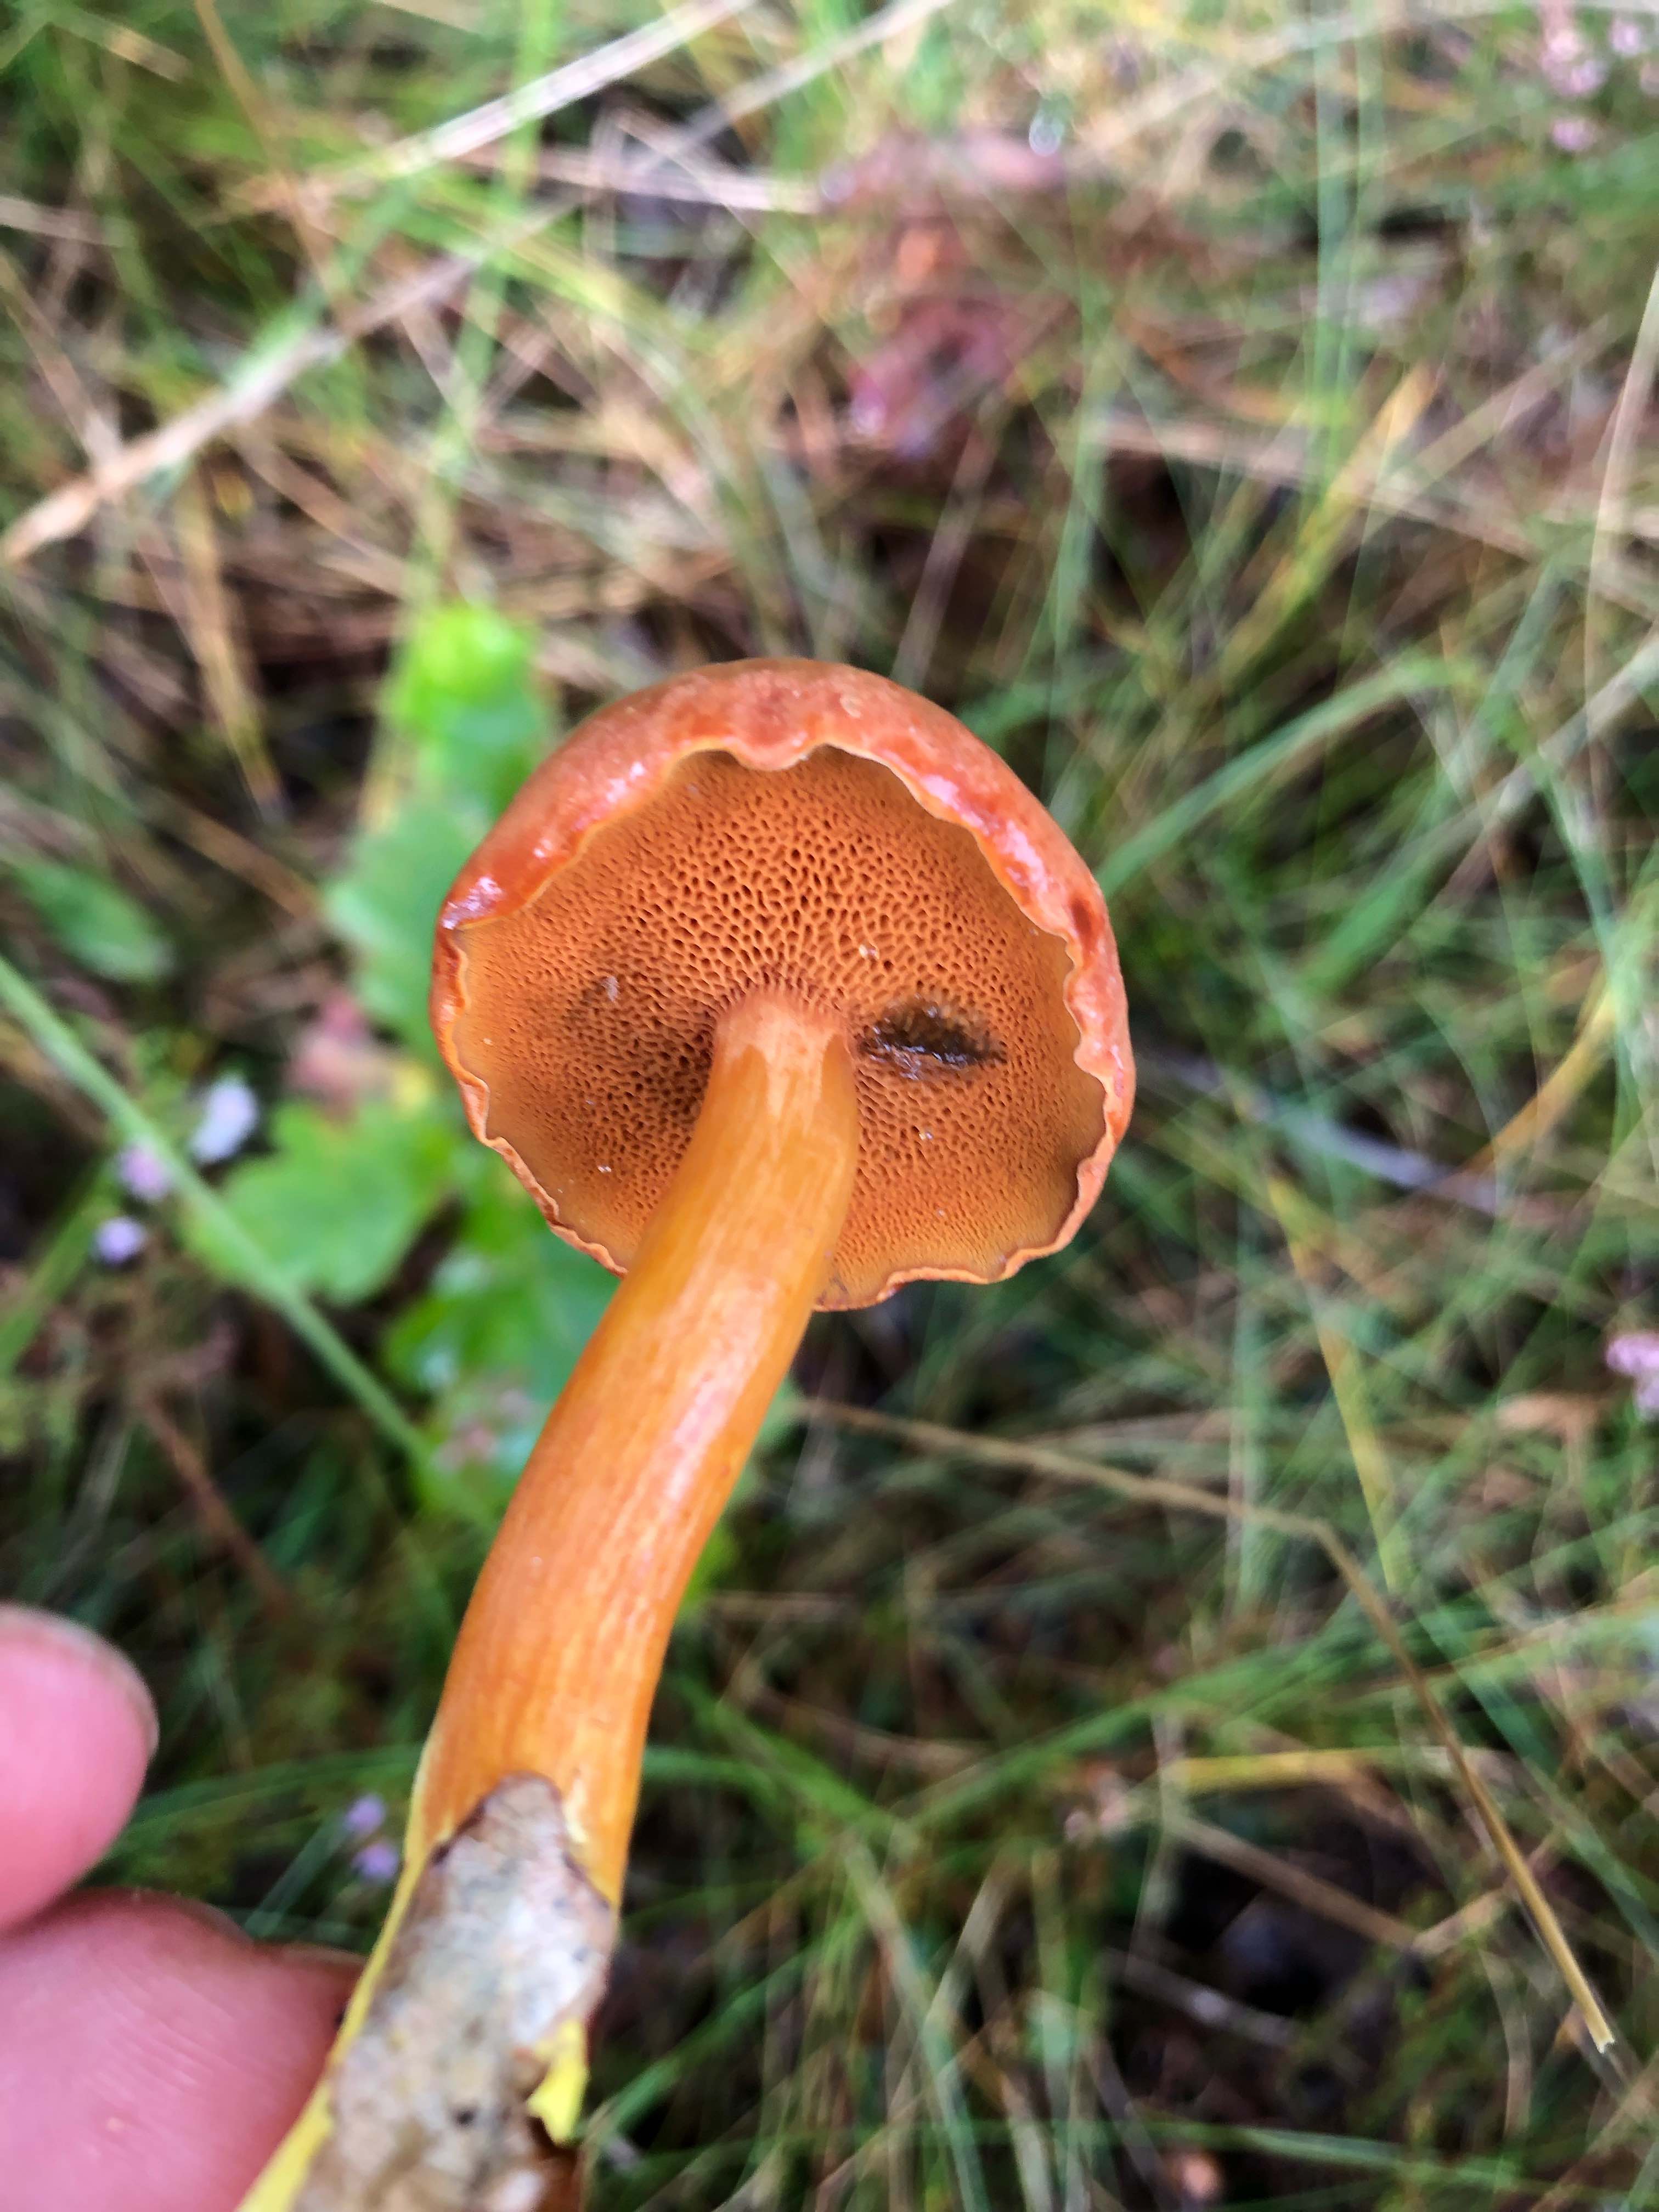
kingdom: Fungi
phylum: Basidiomycota
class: Agaricomycetes
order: Boletales
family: Boletaceae
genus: Chalciporus
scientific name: Chalciporus piperatus
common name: peberrørhat
